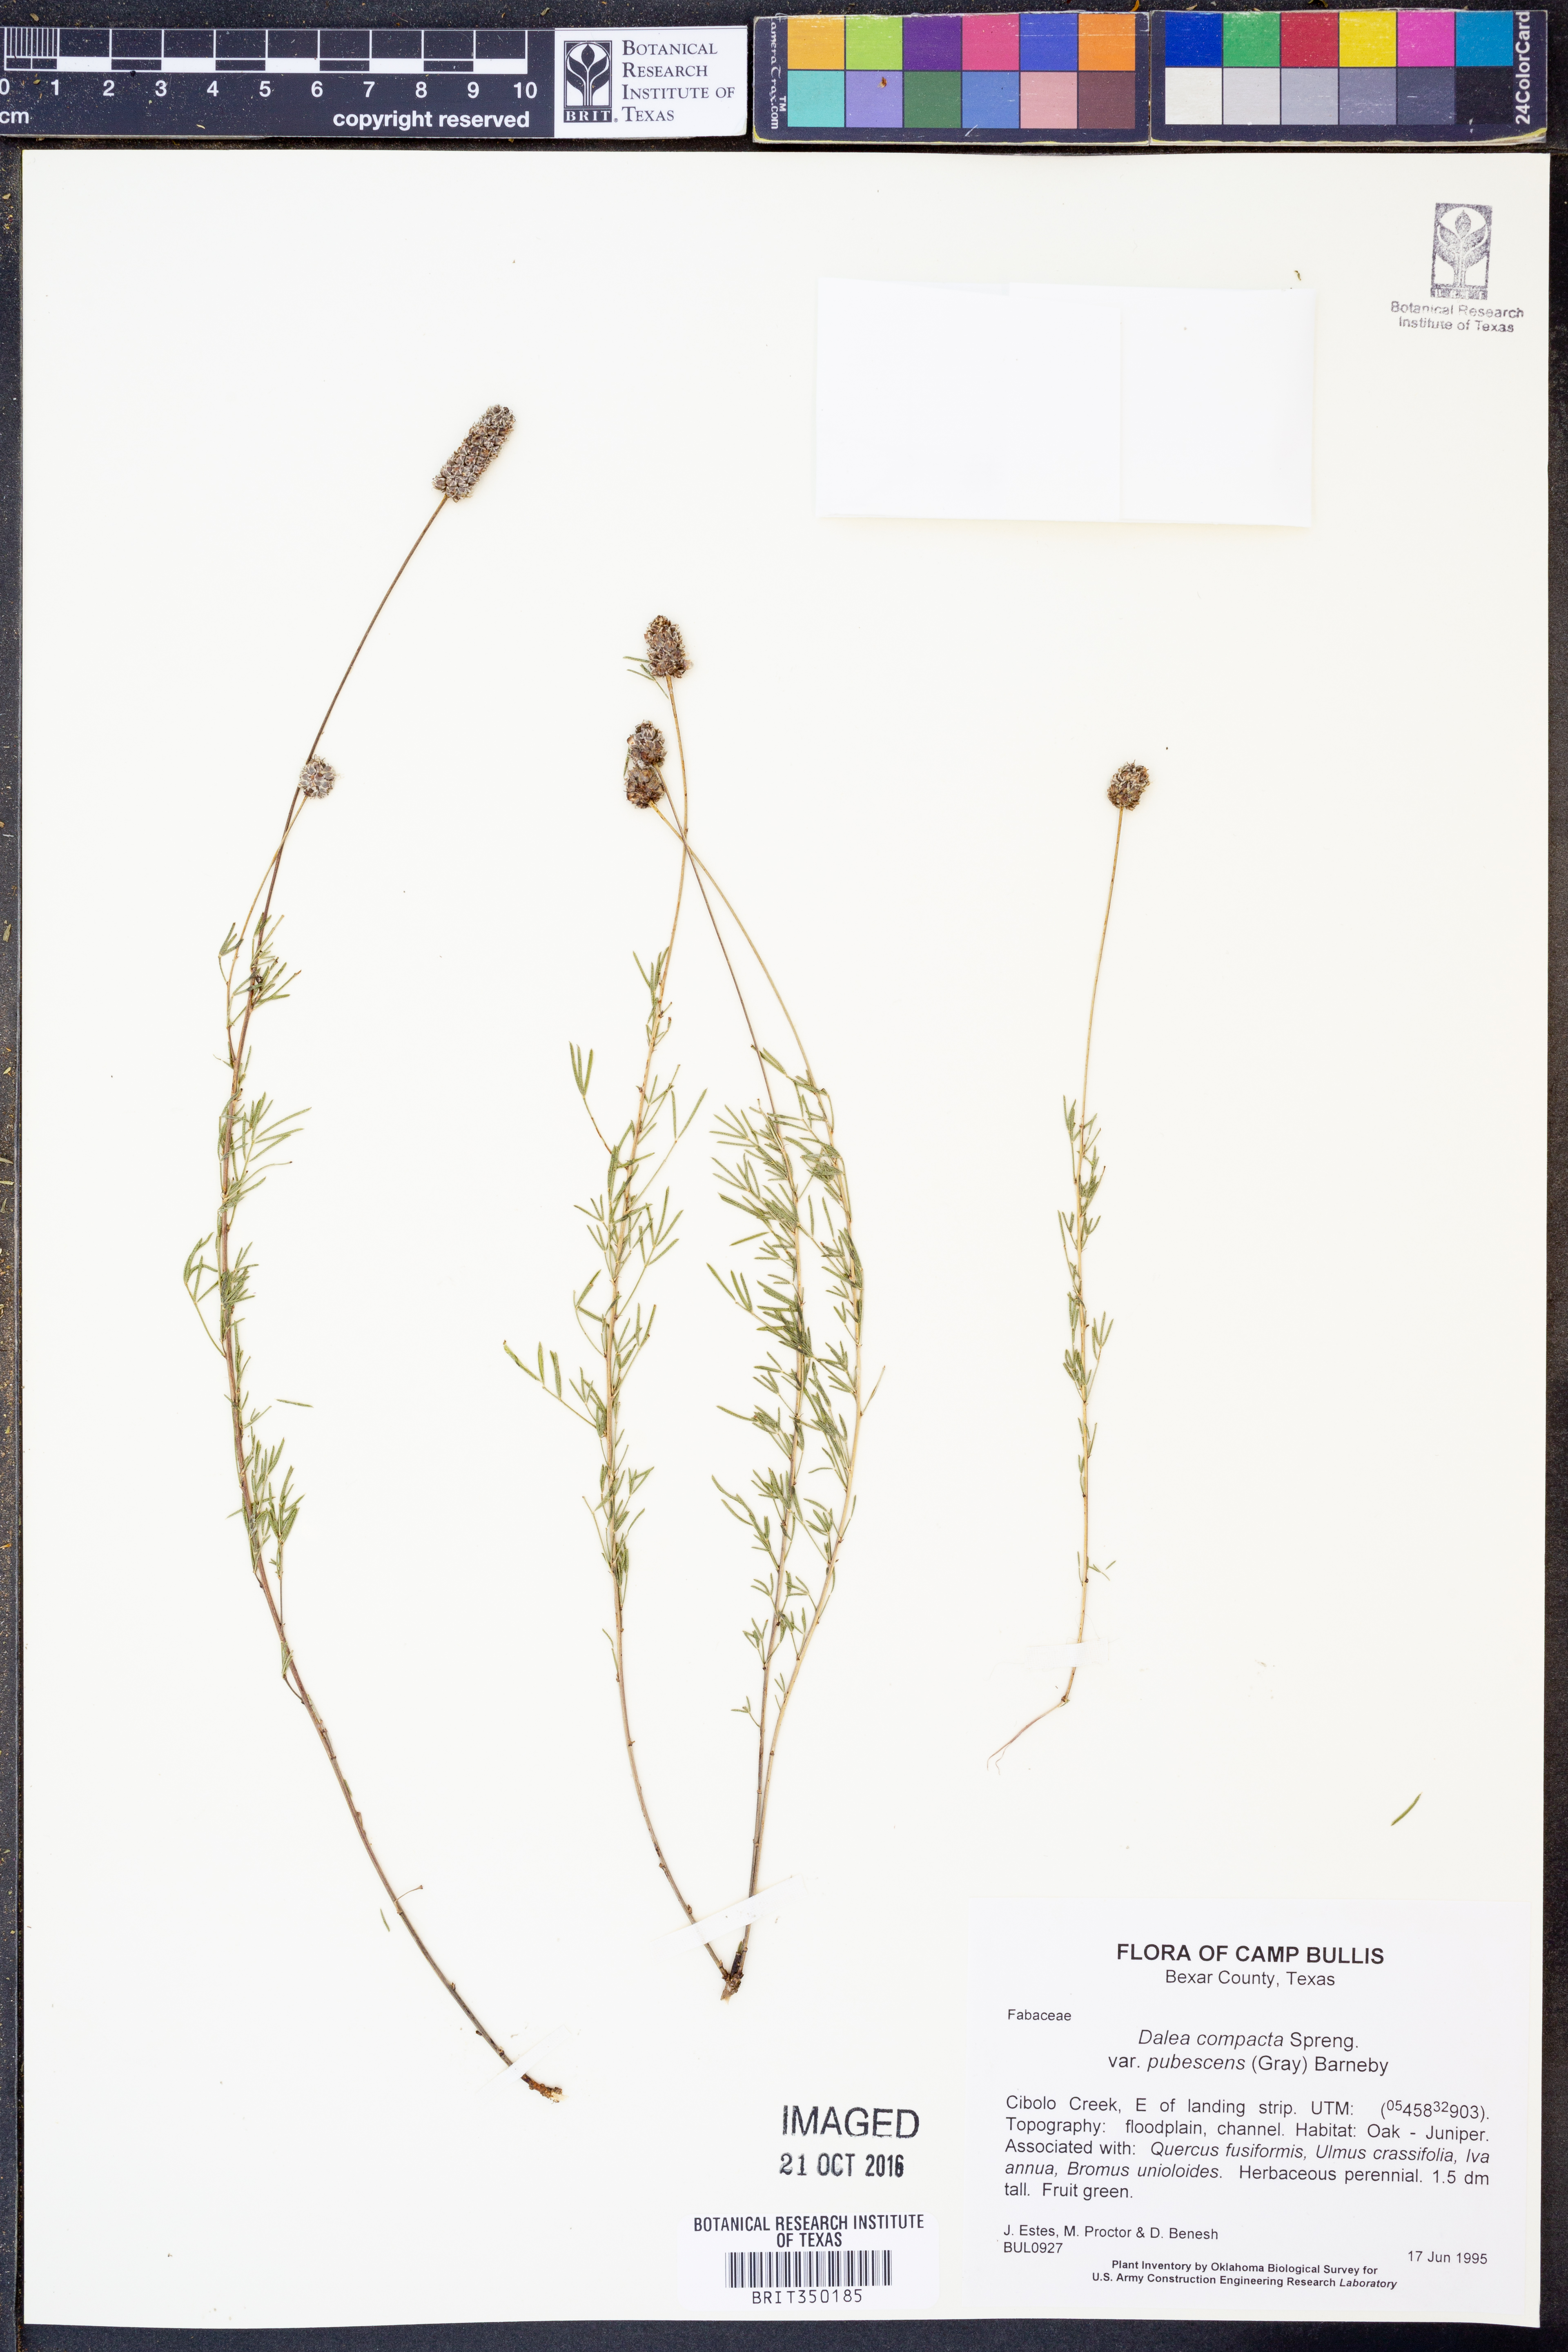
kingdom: Plantae
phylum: Tracheophyta
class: Magnoliopsida
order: Fabales
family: Fabaceae
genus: Dalea
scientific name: Dalea compacta
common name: Compact prairie-clover
